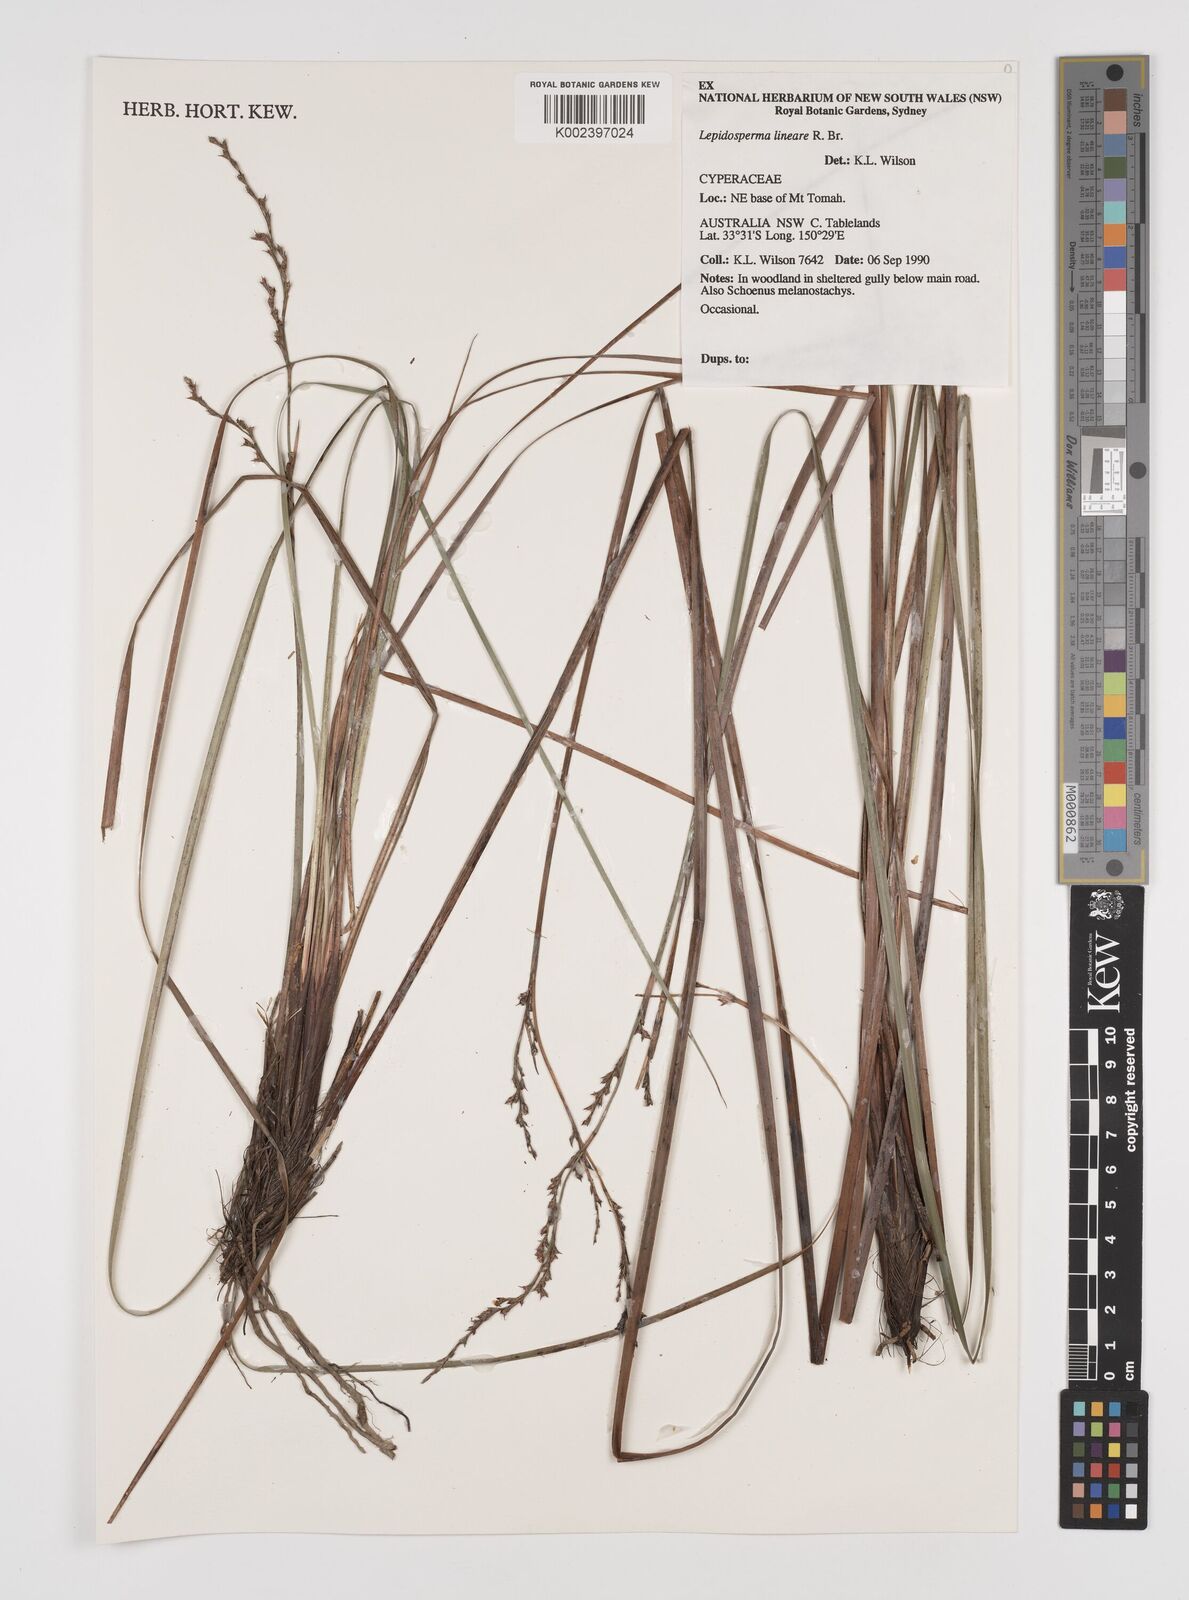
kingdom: Plantae
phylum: Tracheophyta
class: Liliopsida
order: Poales
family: Cyperaceae
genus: Lepidosperma
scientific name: Lepidosperma lineare
